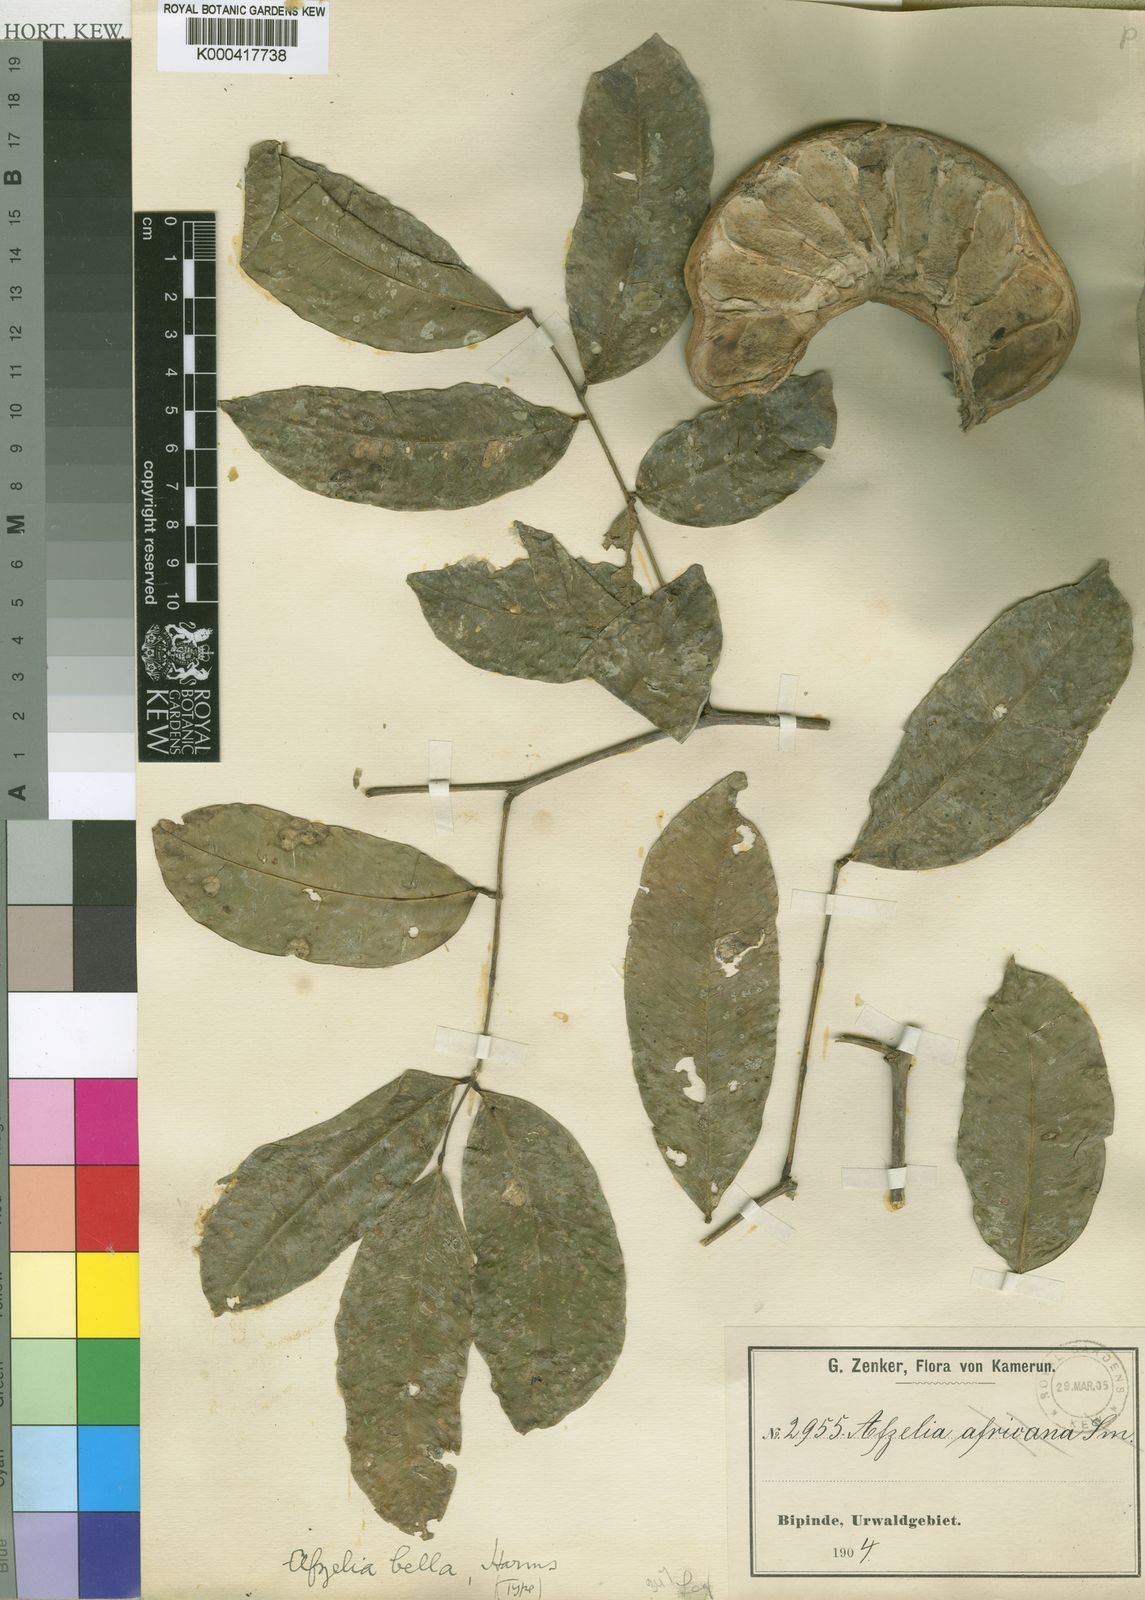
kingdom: Plantae
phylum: Tracheophyta
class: Magnoliopsida
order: Fabales
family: Fabaceae
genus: Afzelia
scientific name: Afzelia bella
